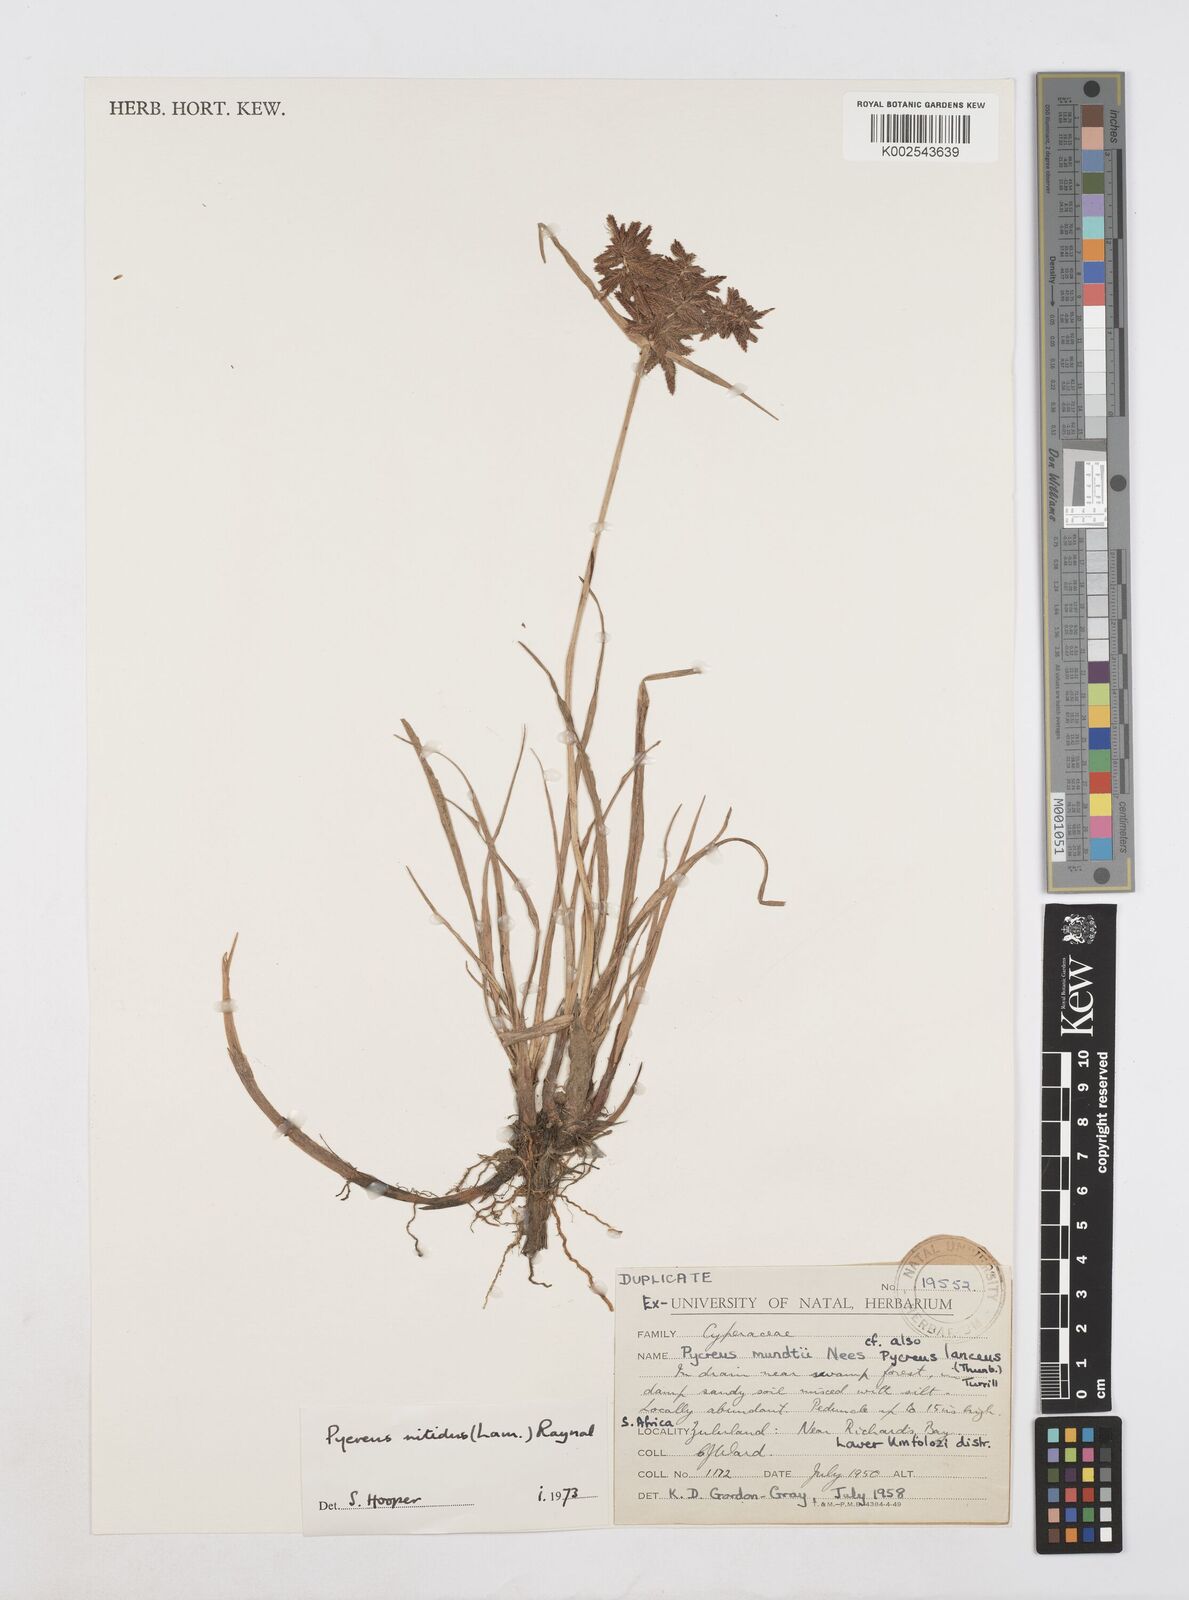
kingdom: Plantae
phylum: Tracheophyta
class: Liliopsida
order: Poales
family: Cyperaceae
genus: Cyperus
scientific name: Cyperus nitidus
